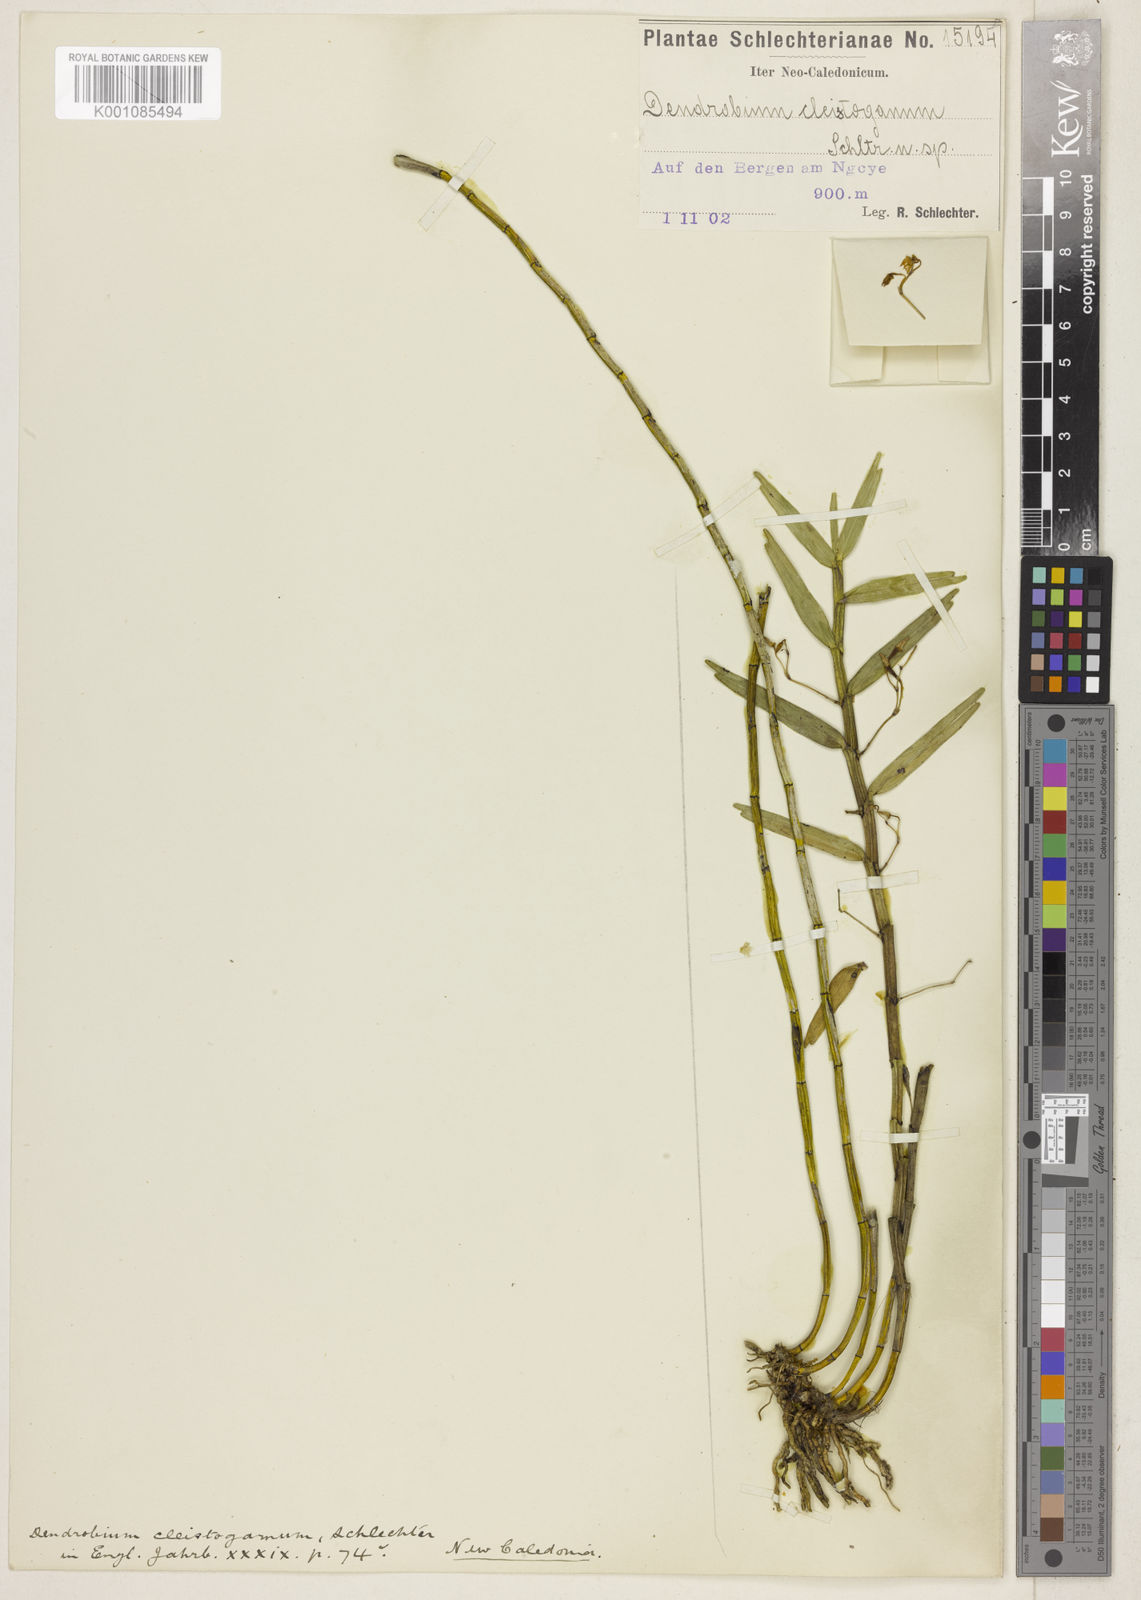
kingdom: Plantae
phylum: Tracheophyta
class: Liliopsida
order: Asparagales
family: Orchidaceae
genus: Dendrobium
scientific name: Dendrobium cleistogamum
